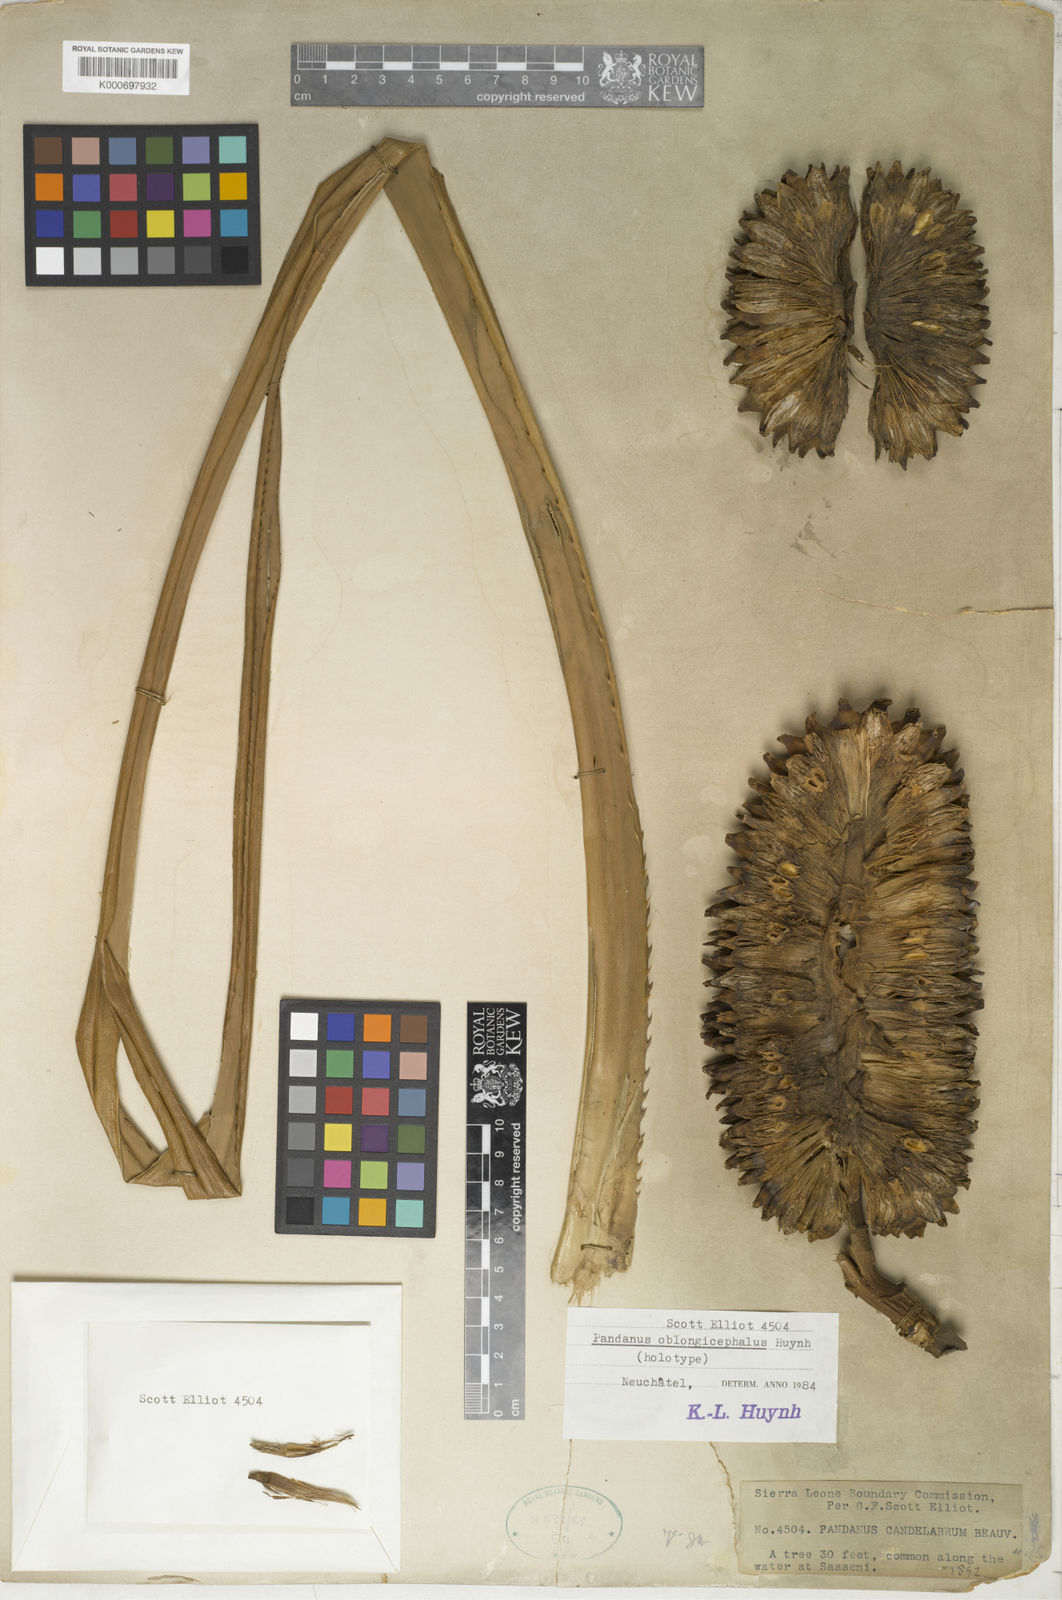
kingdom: Plantae
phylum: Tracheophyta
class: Liliopsida
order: Pandanales
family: Pandanaceae
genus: Pandanus
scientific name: Pandanus
